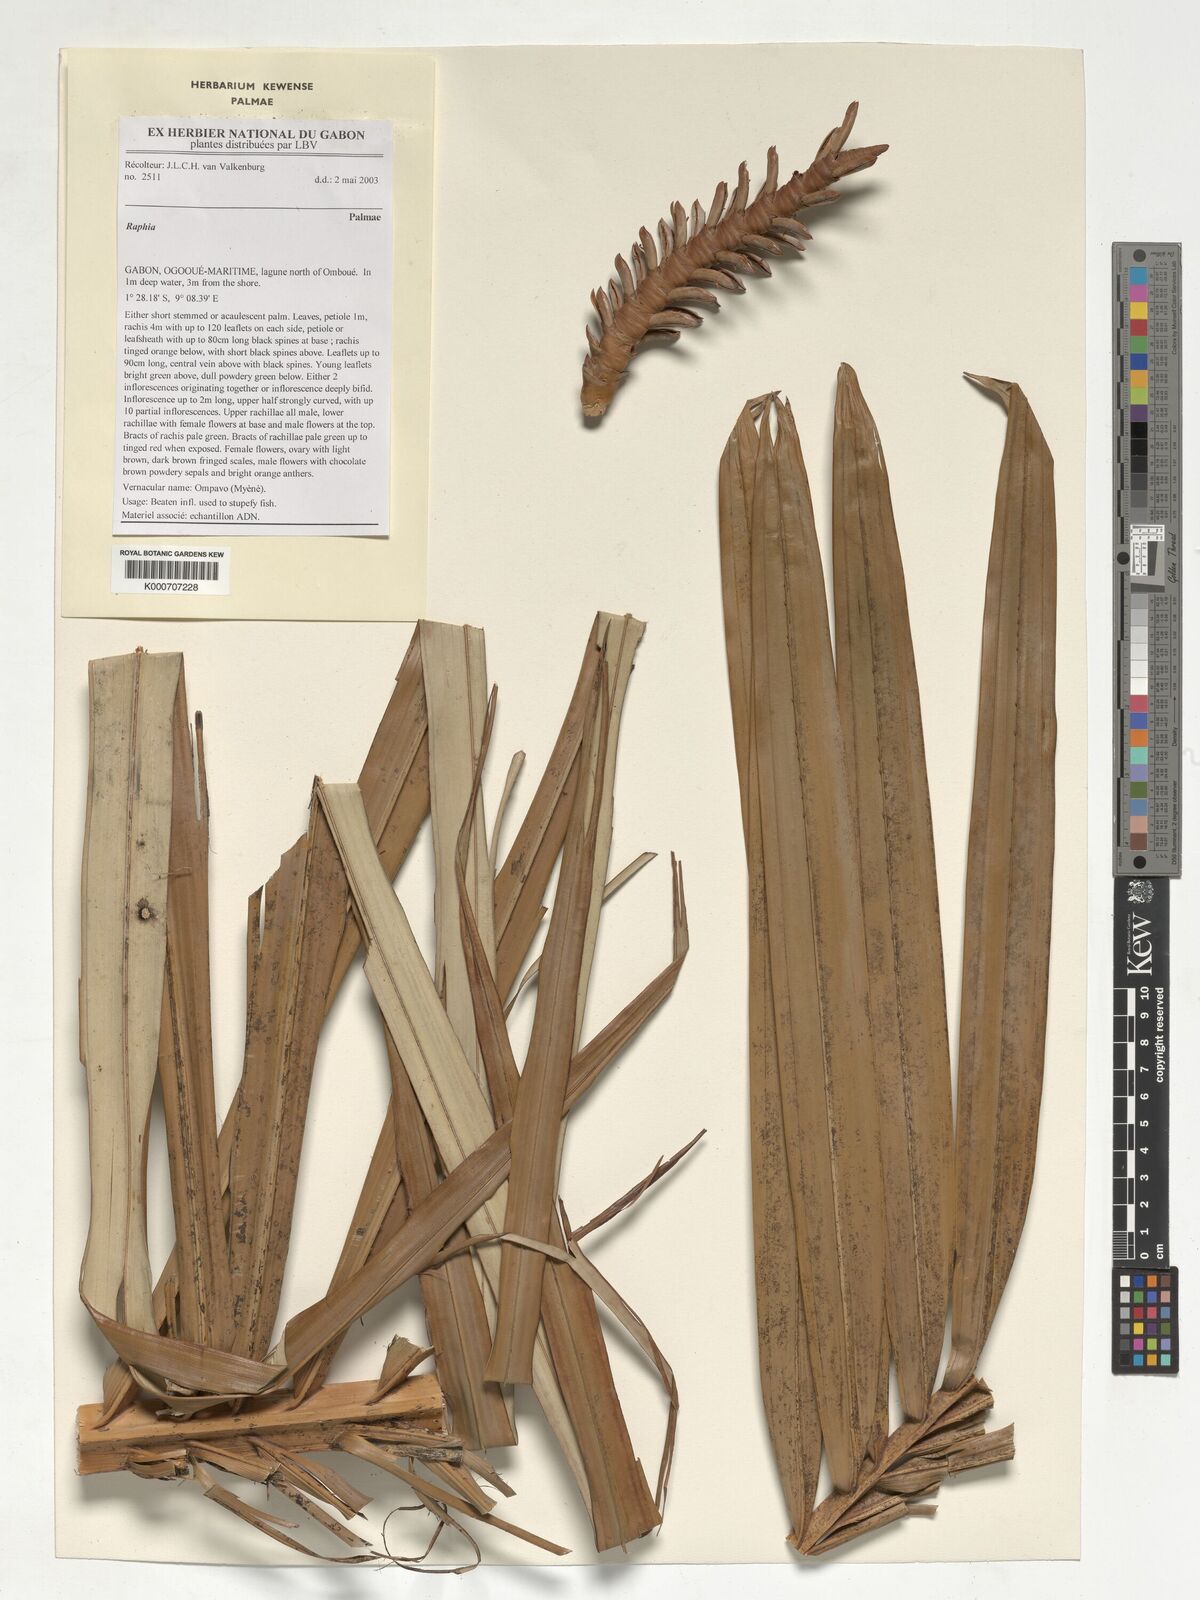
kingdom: Plantae
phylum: Tracheophyta
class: Liliopsida
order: Arecales
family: Arecaceae
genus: Raphia
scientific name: Raphia
